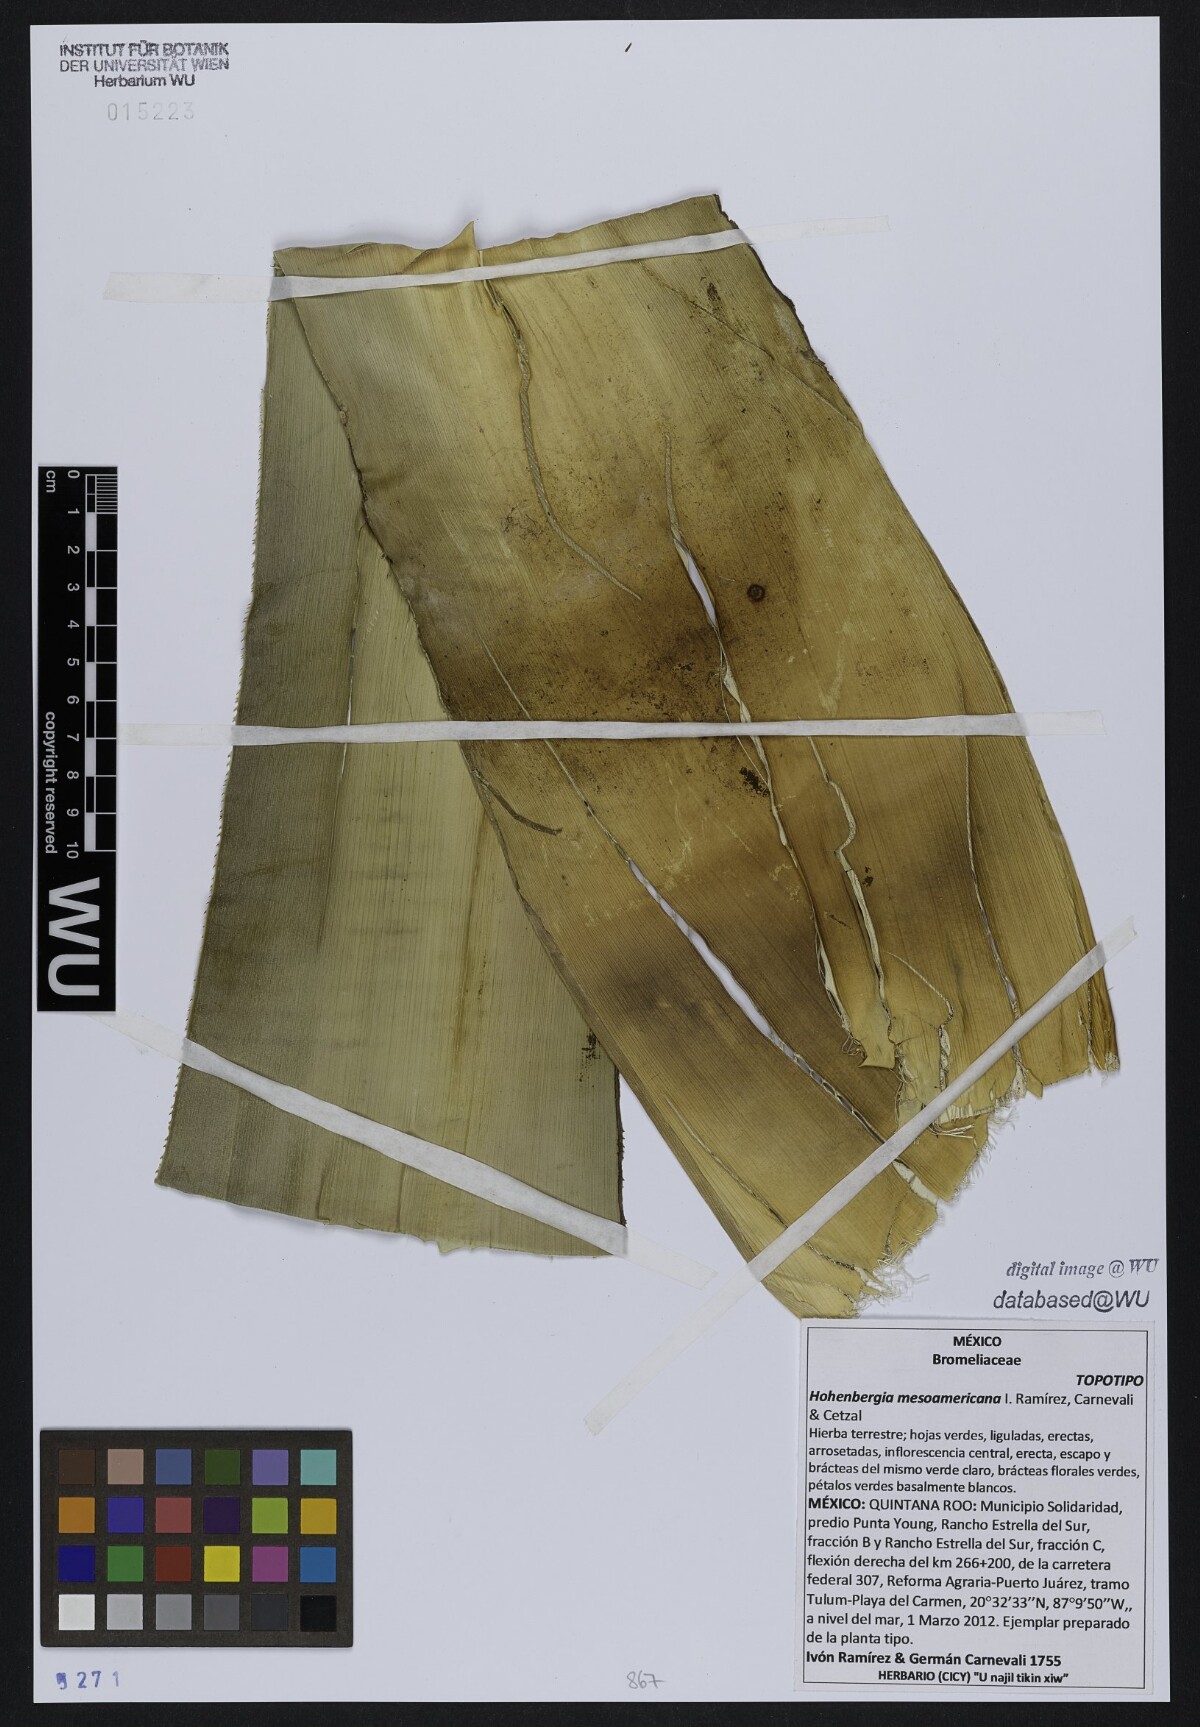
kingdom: Plantae
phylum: Tracheophyta
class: Liliopsida
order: Poales
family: Bromeliaceae
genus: Wittmackia
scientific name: Wittmackia mesoamericana
